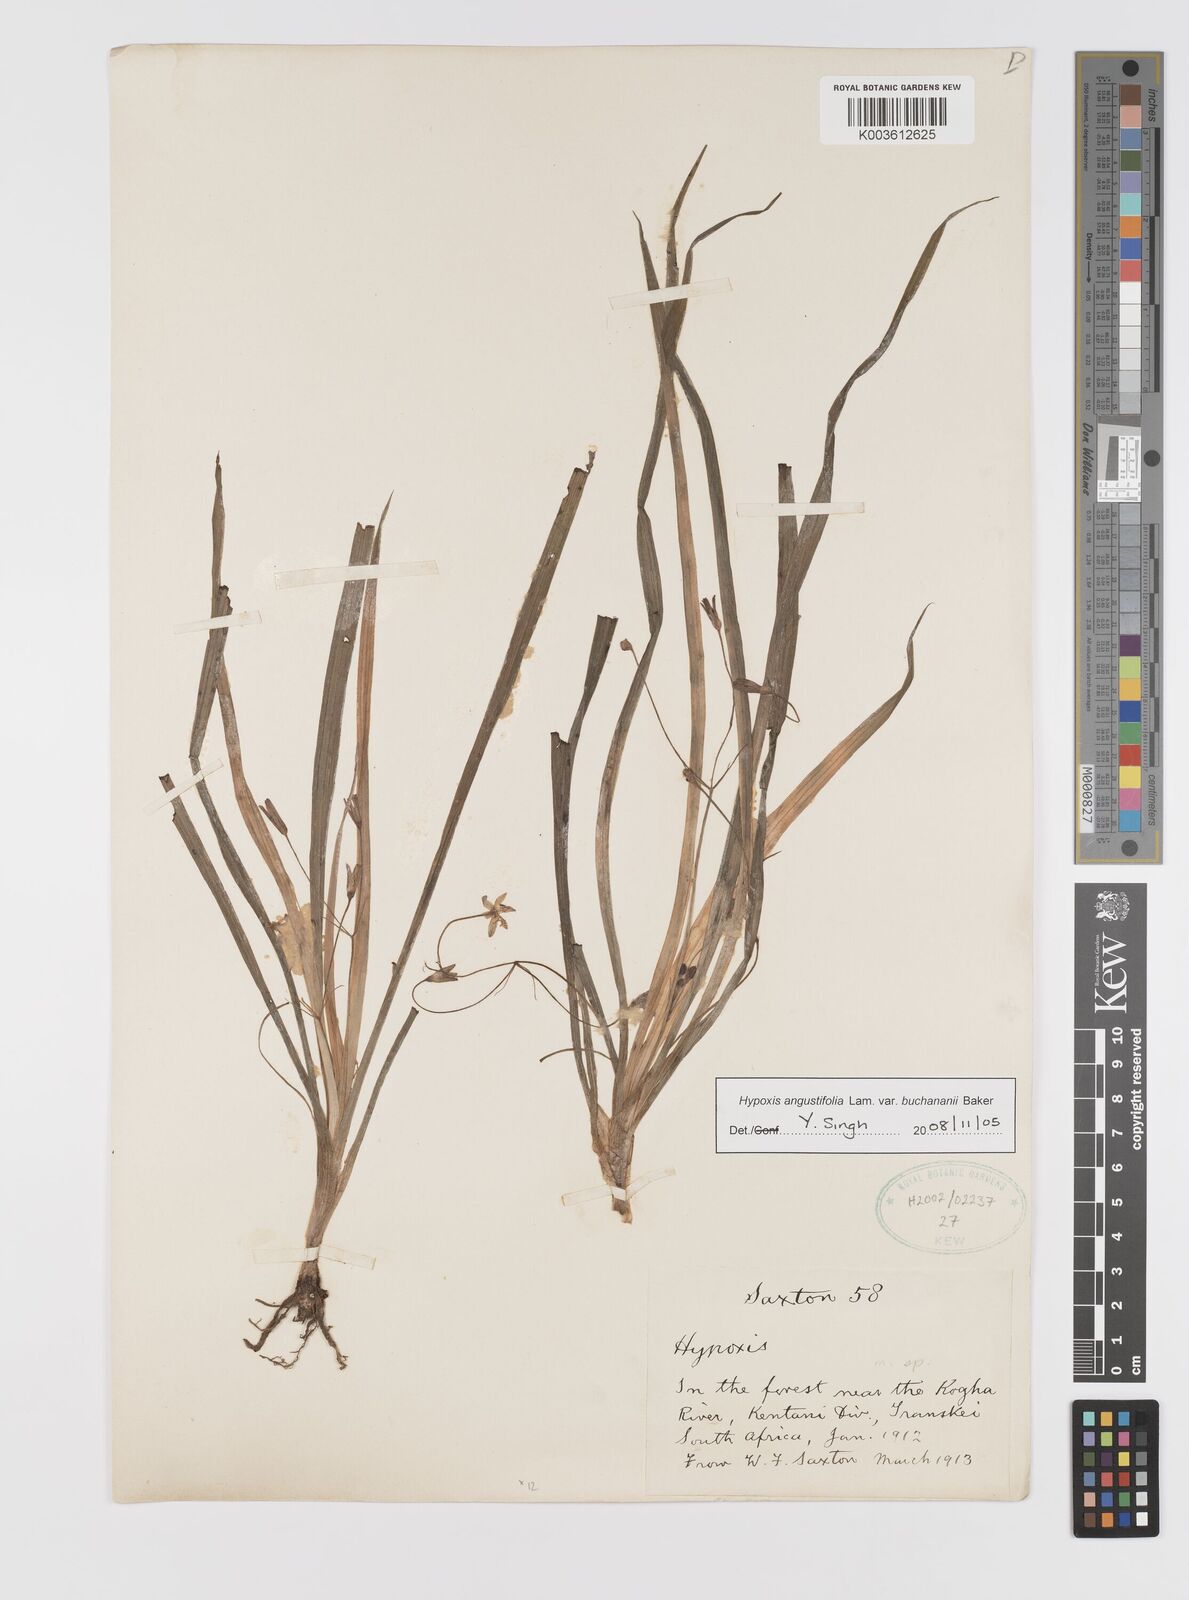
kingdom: Plantae
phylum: Tracheophyta
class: Liliopsida
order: Asparagales
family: Hypoxidaceae
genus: Hypoxis
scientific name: Hypoxis angustifolia
